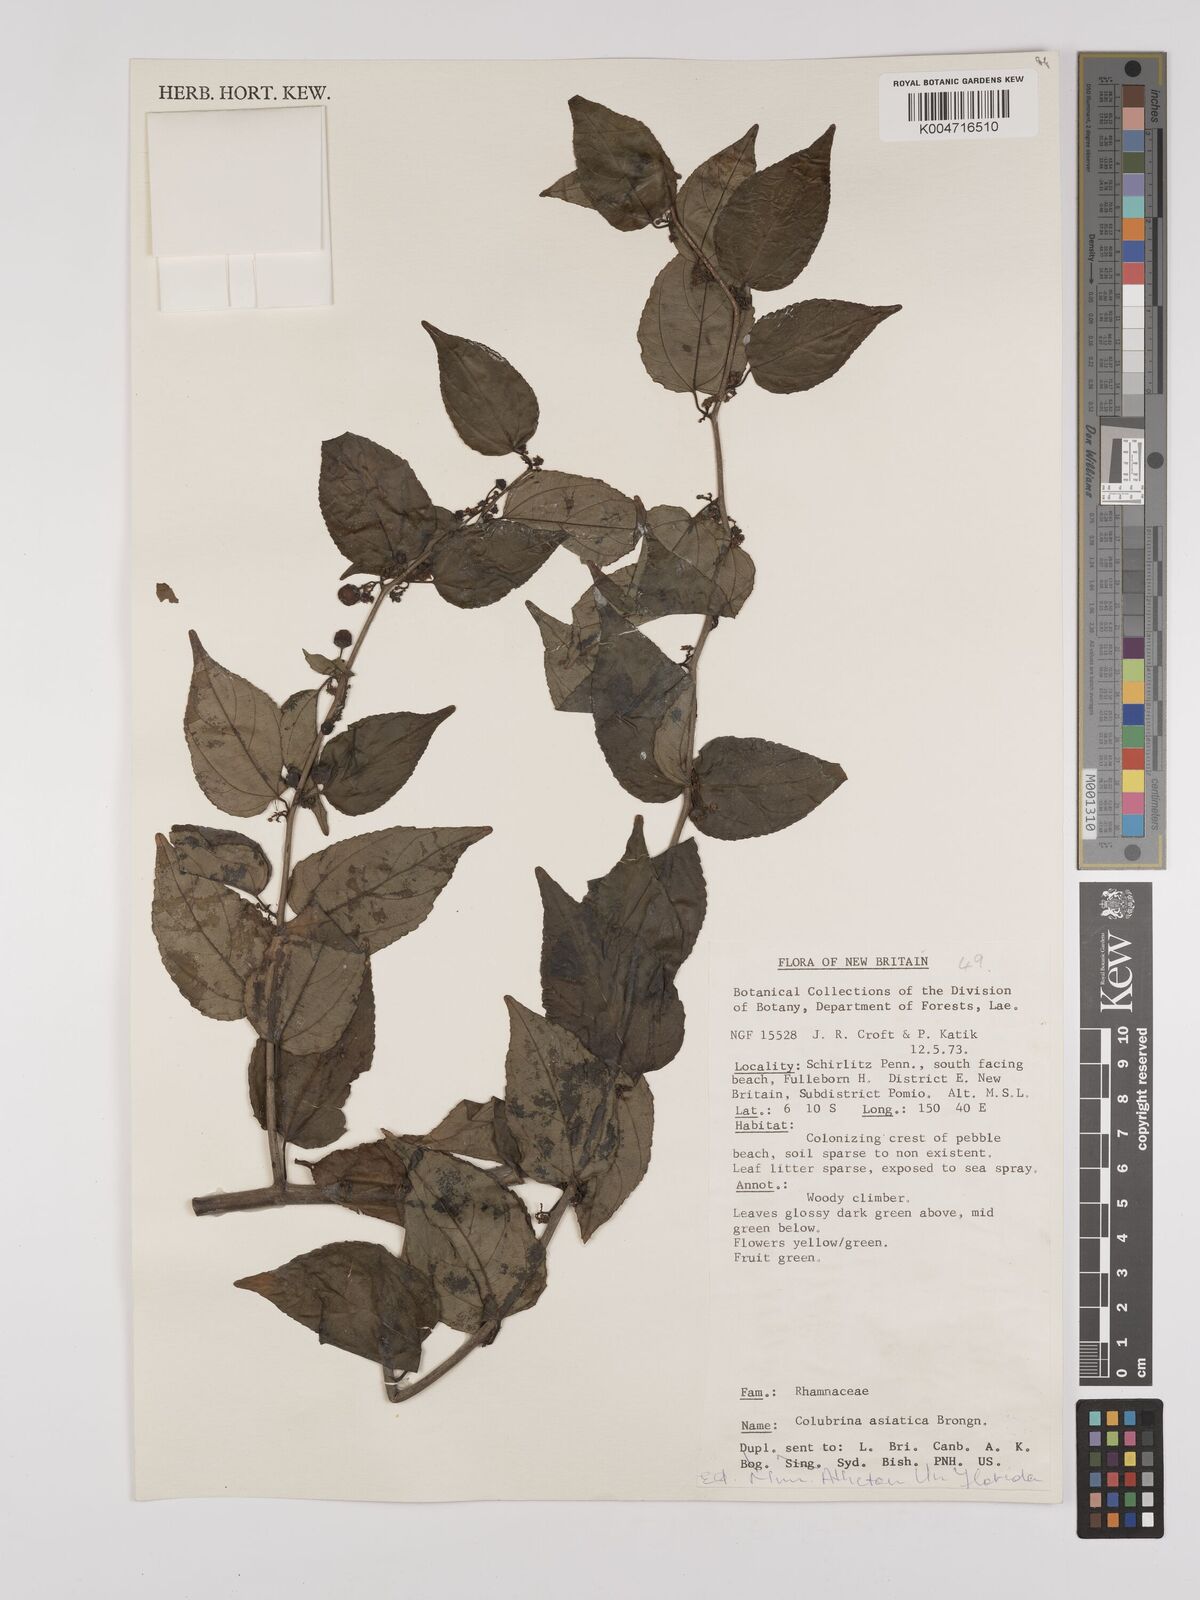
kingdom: Plantae
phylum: Tracheophyta
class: Magnoliopsida
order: Rosales
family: Rhamnaceae
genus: Colubrina
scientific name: Colubrina asiatica
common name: Asian nakedwood
